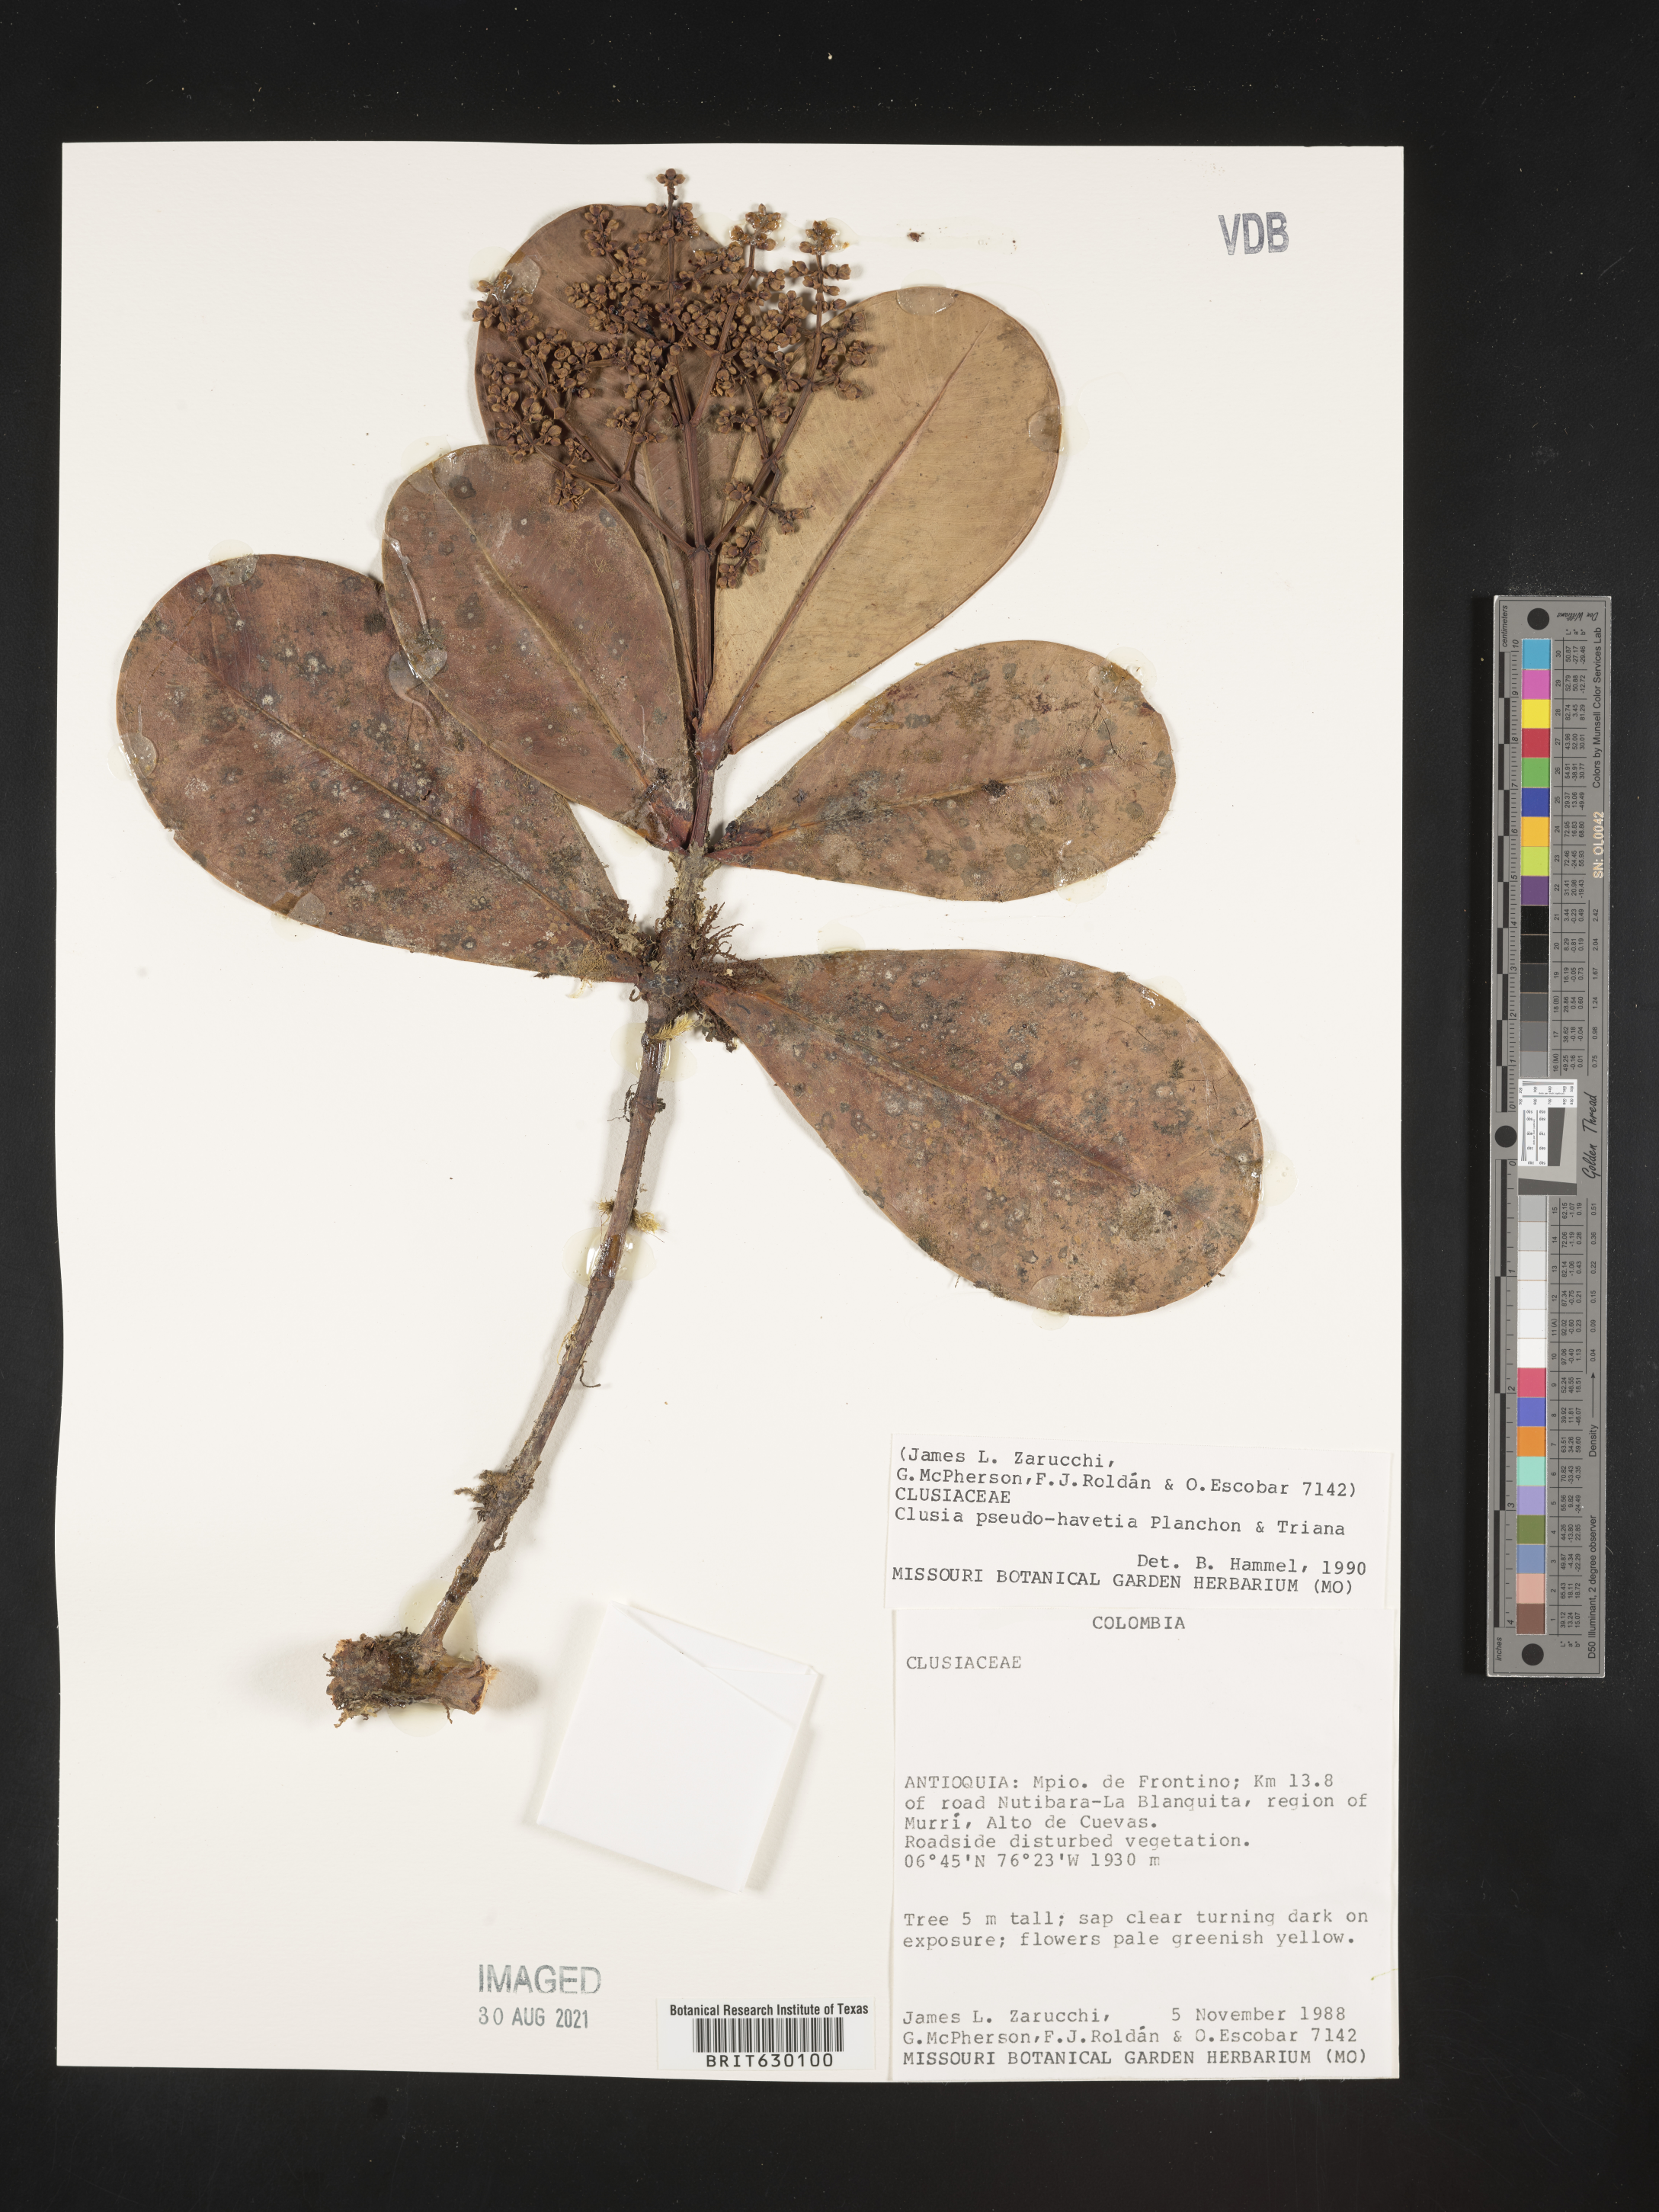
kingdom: Plantae
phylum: Tracheophyta
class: Magnoliopsida
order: Malpighiales
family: Clusiaceae
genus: Clusia
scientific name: Clusia pseudohavetia
